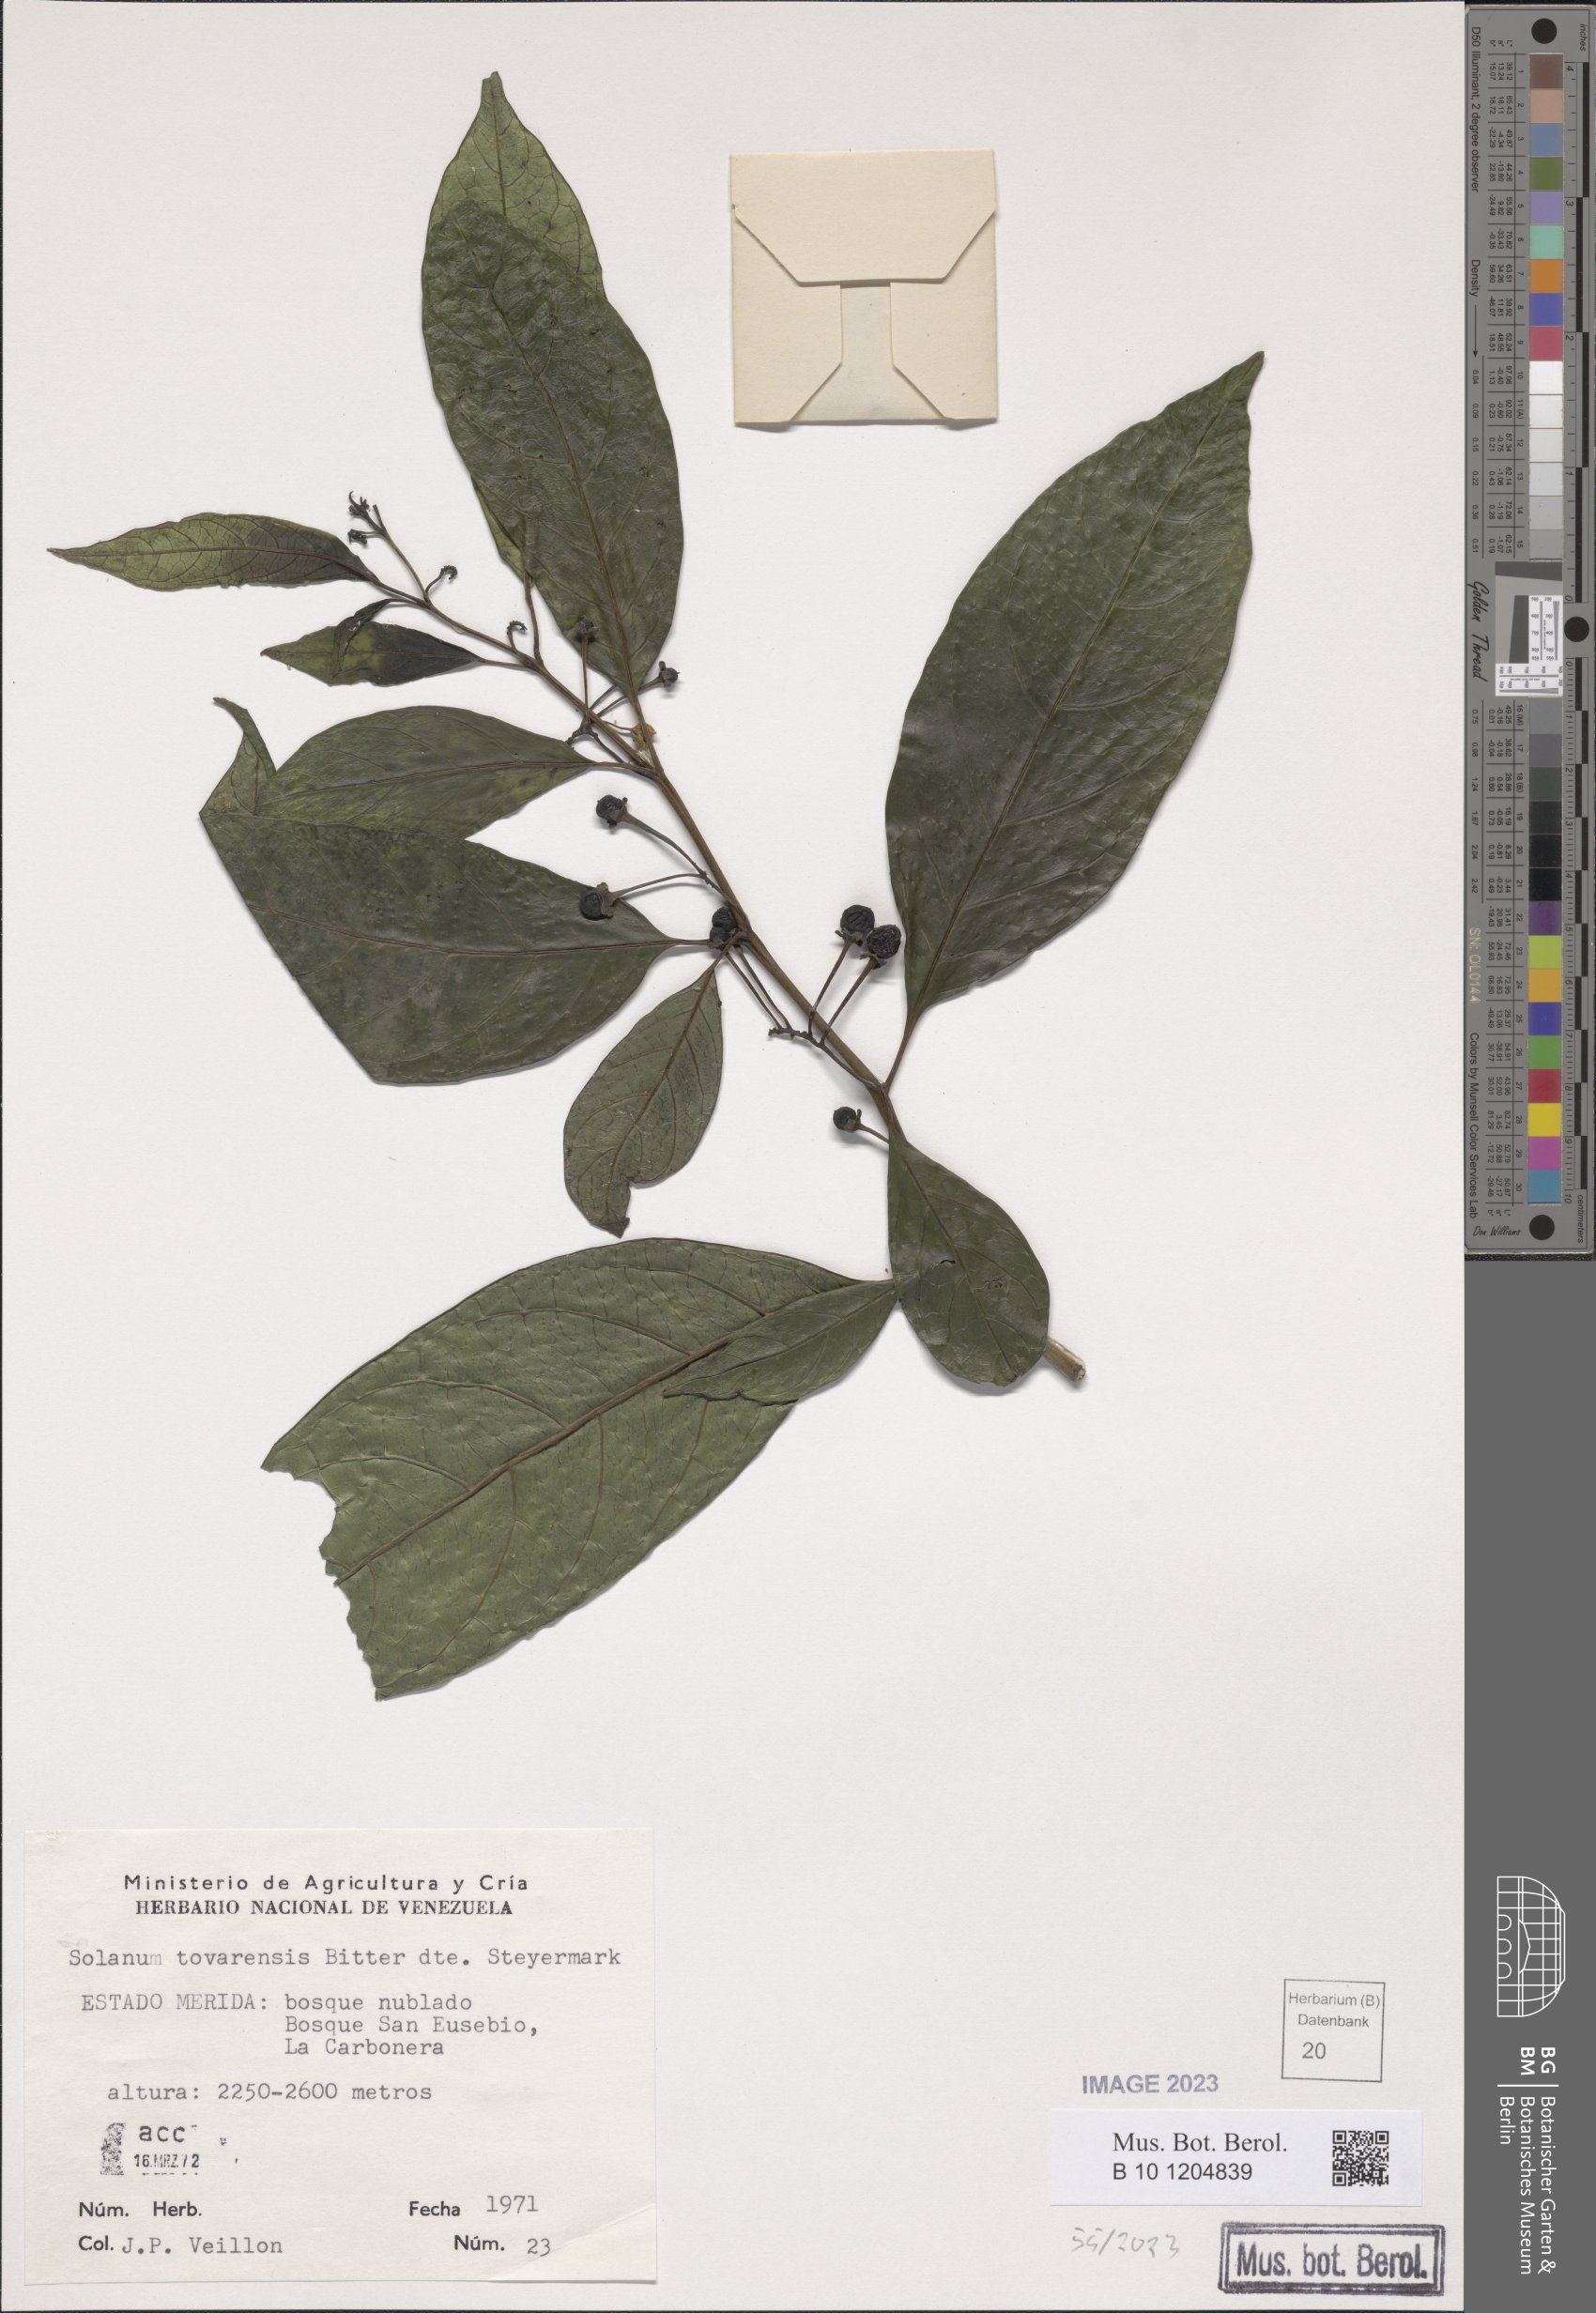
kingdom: Plantae
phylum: Tracheophyta
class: Magnoliopsida
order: Solanales
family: Solanaceae
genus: Solanum
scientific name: Solanum nudum
